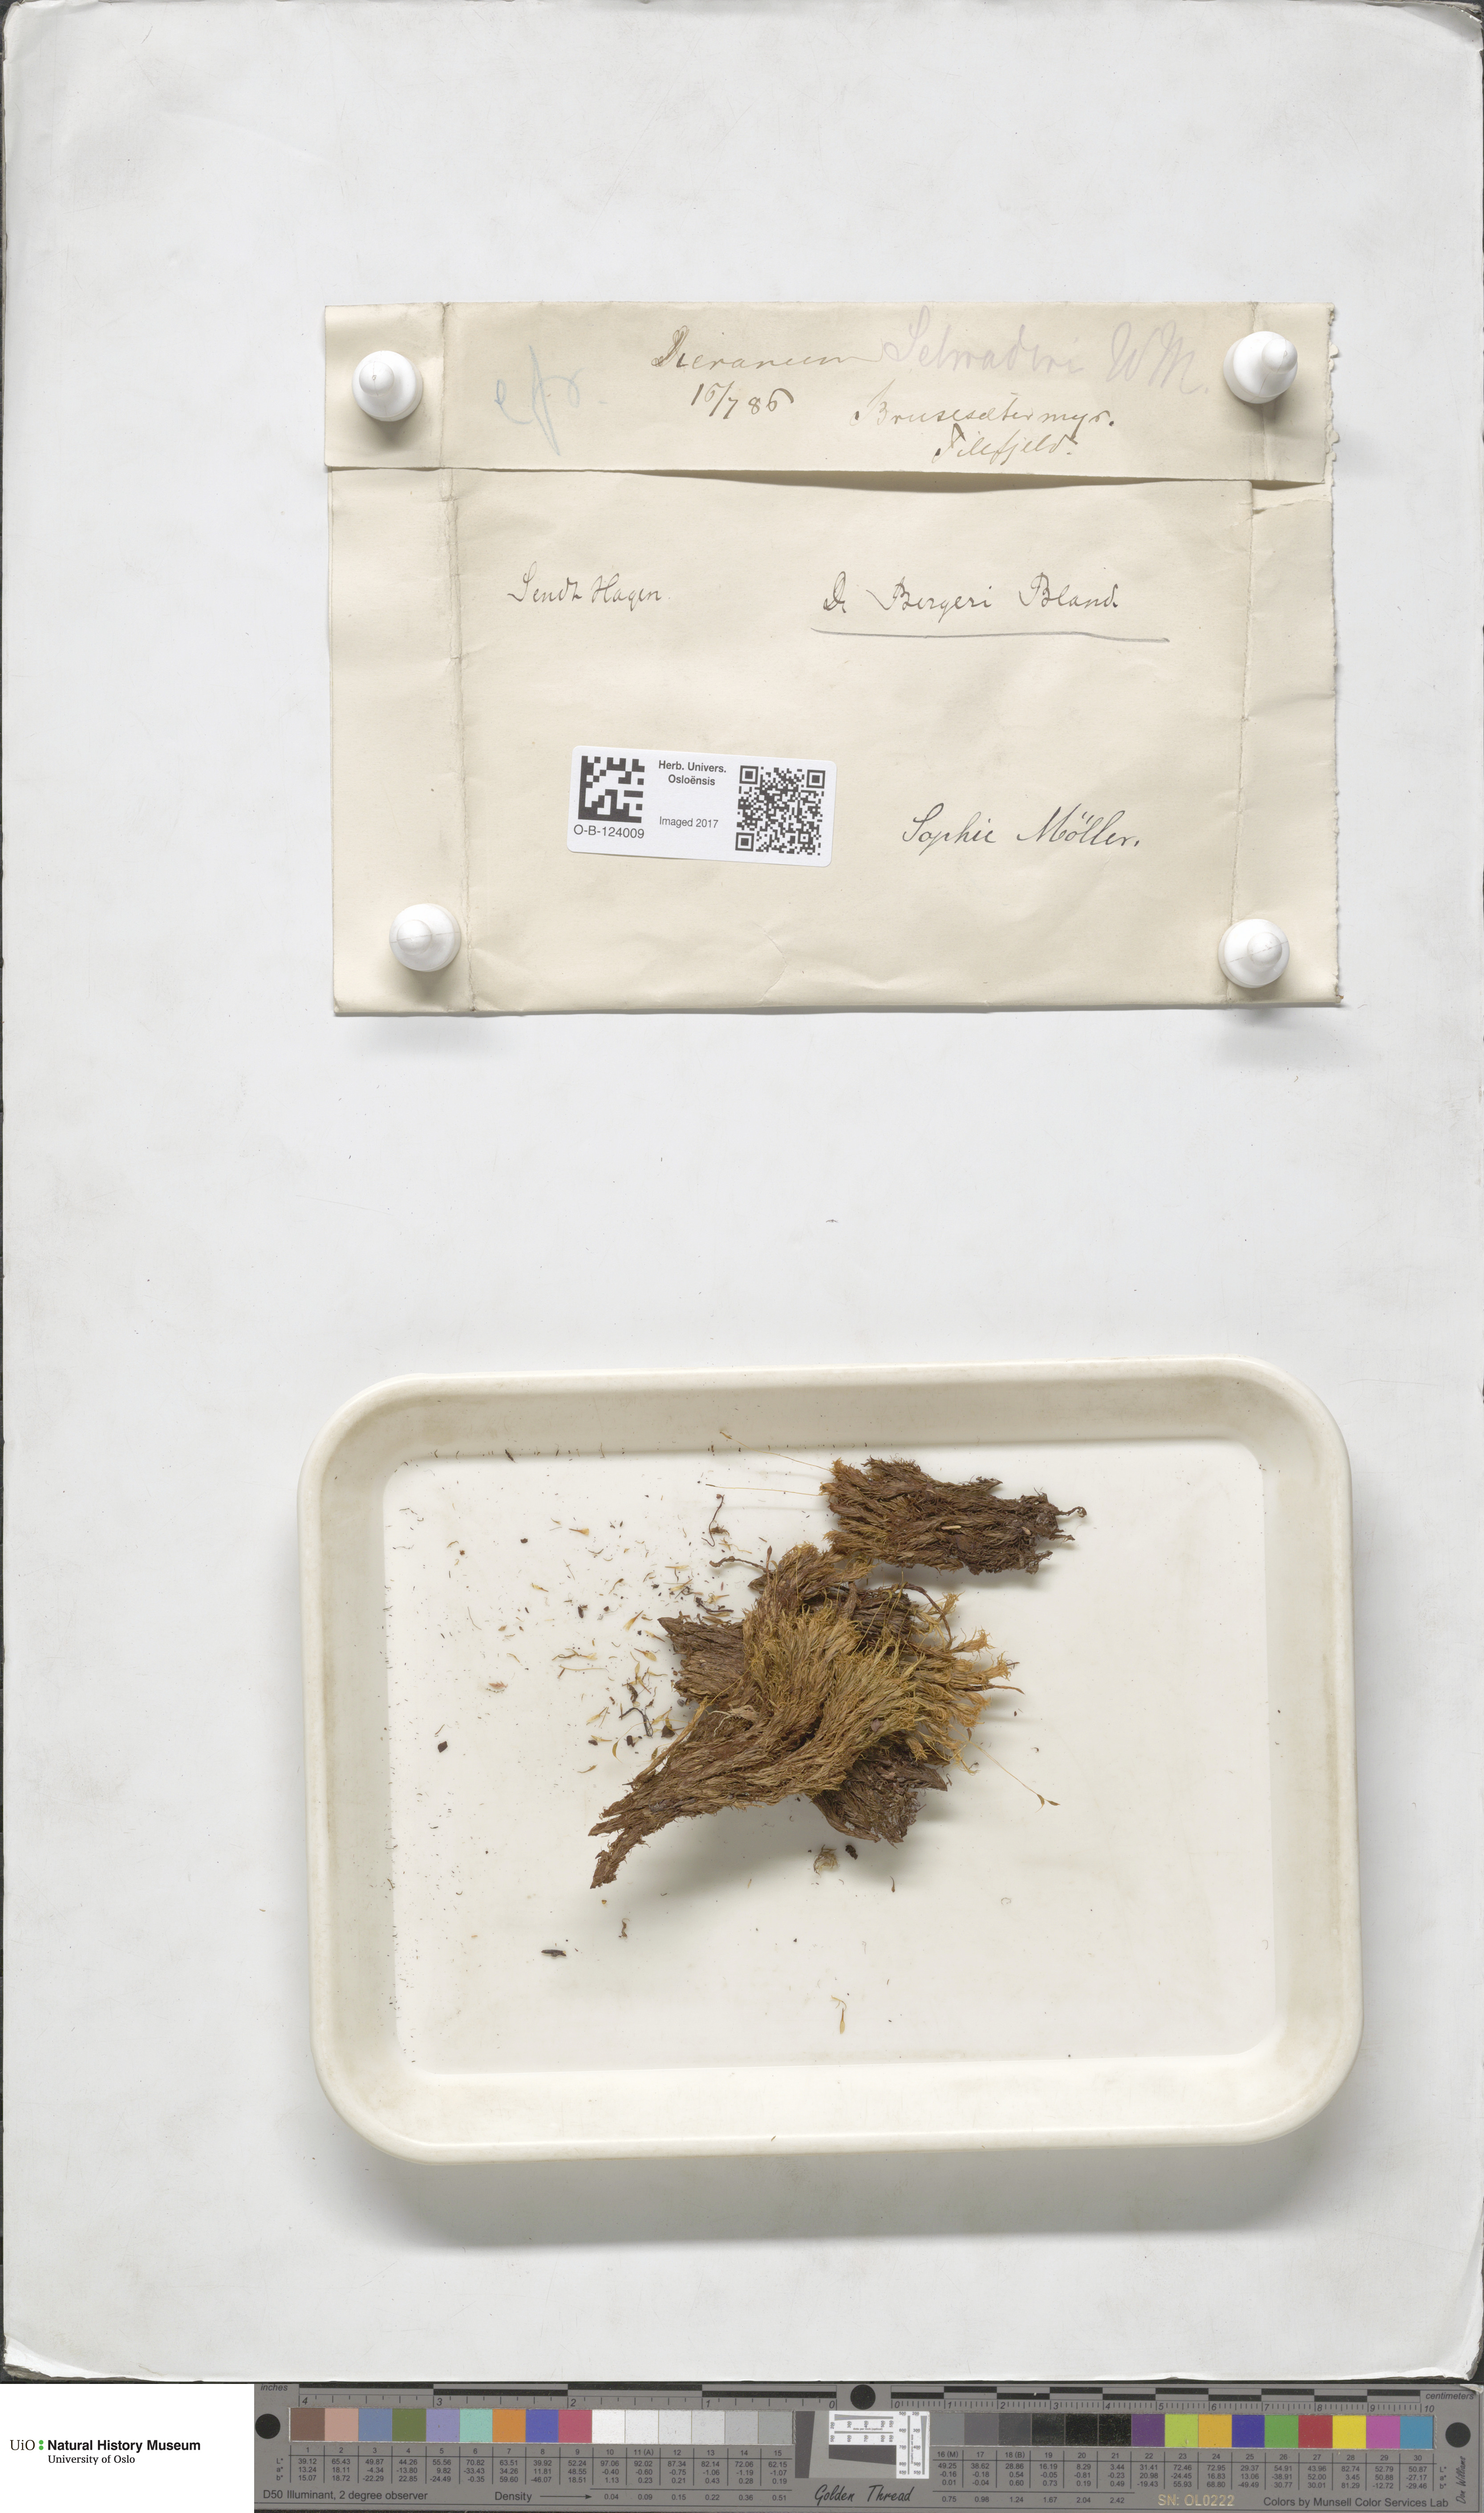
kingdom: Plantae
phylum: Bryophyta
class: Bryopsida
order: Dicranales
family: Dicranaceae
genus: Dicranum
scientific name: Dicranum undulatum
